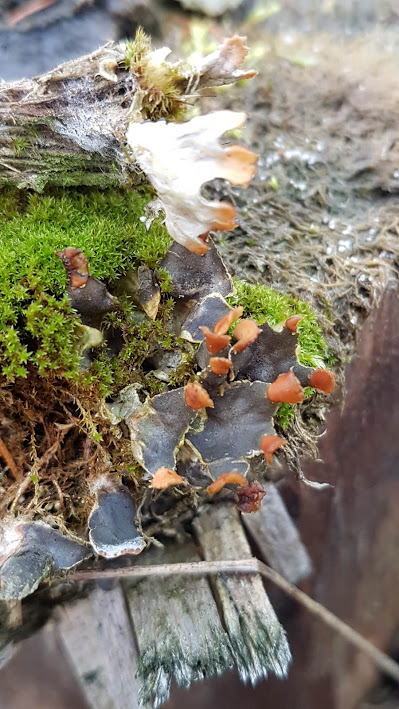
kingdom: Fungi
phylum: Ascomycota
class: Lecanoromycetes
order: Peltigerales
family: Peltigeraceae
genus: Peltigera
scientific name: Peltigera didactyla
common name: liden skjoldlav
